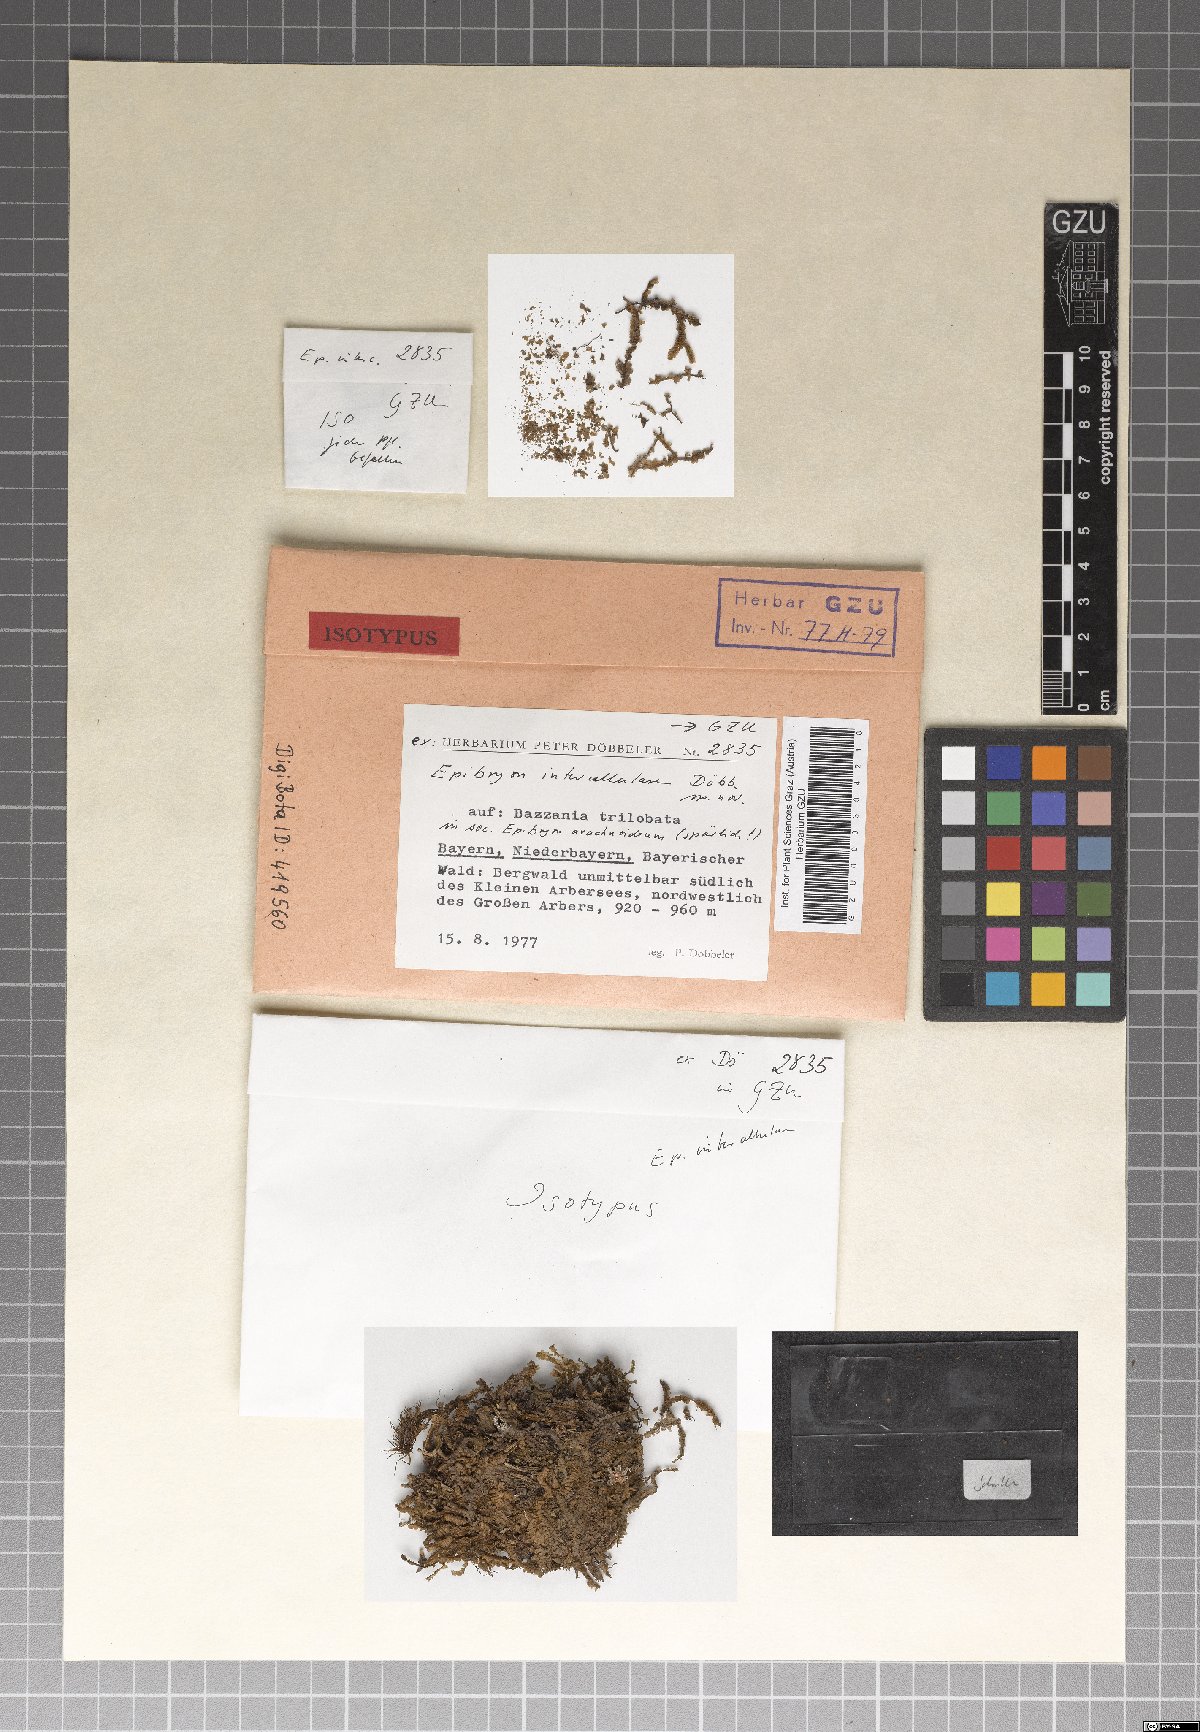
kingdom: Fungi
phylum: Ascomycota
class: Eurotiomycetes
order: Chaetothyriales
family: Epibryaceae
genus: Epibryon
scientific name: Epibryon intercellulare
